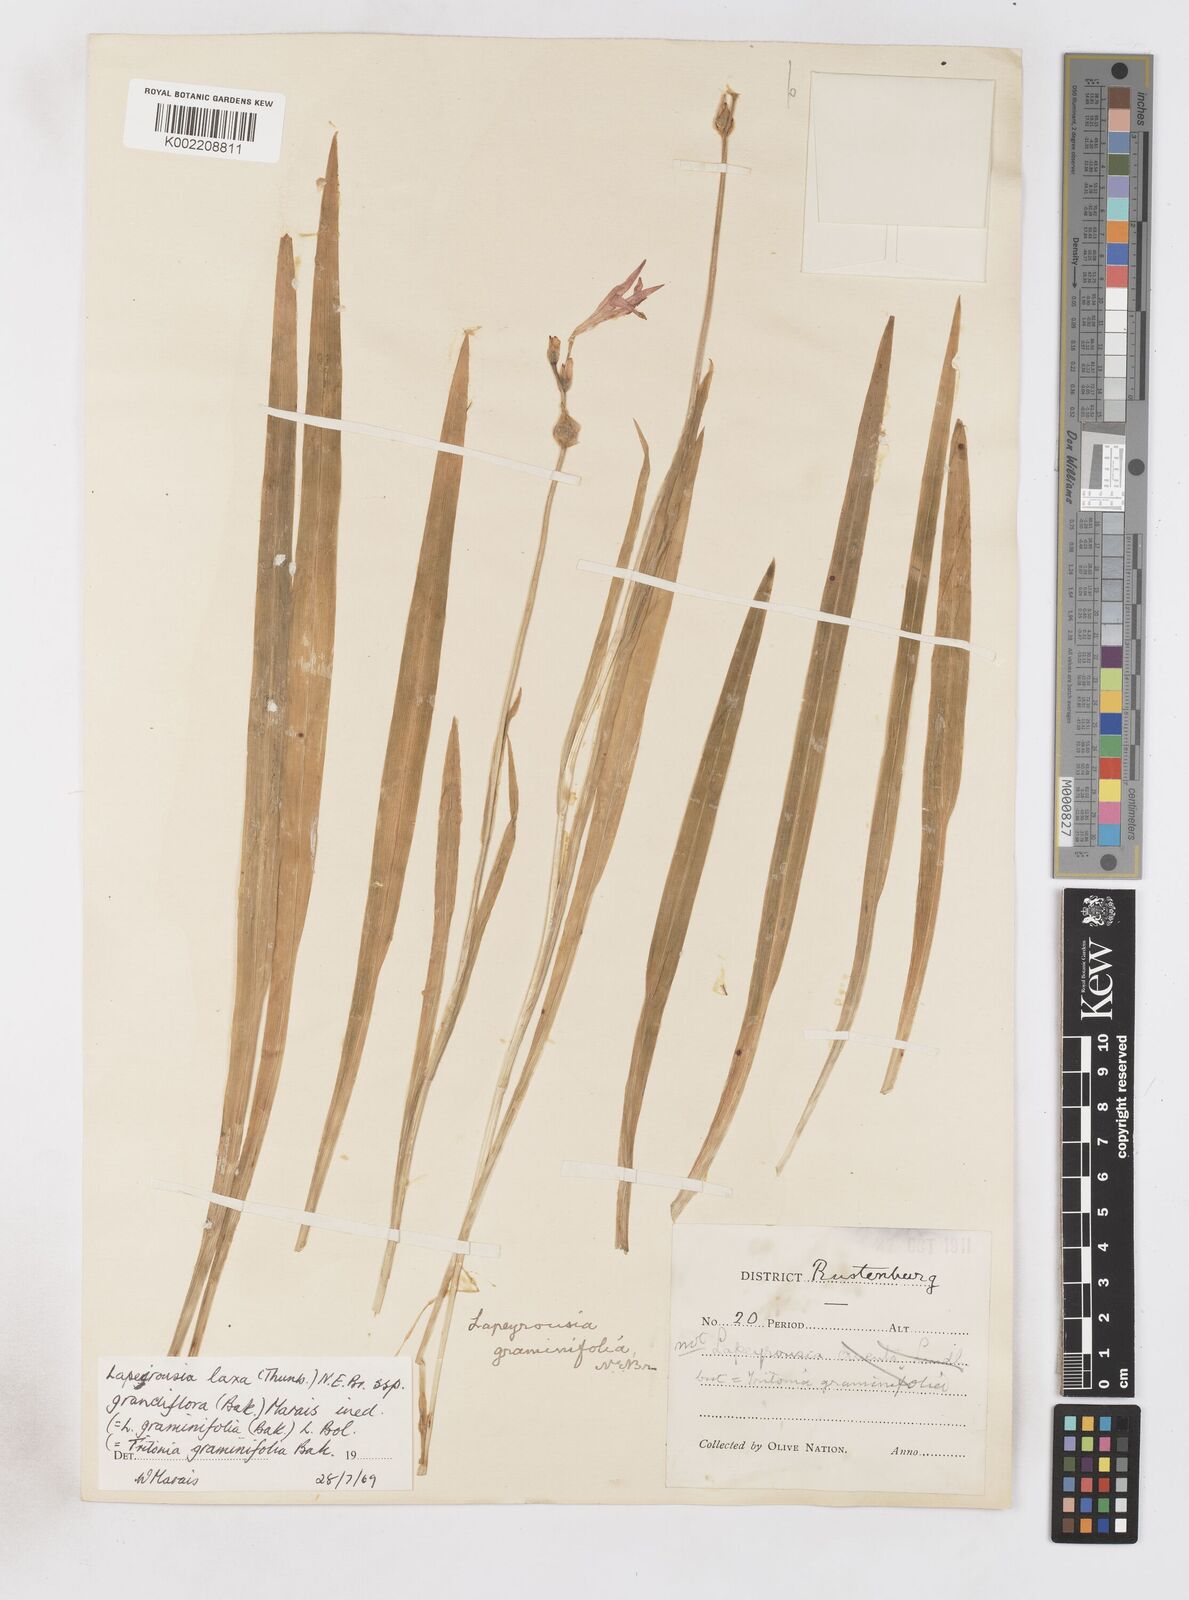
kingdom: Plantae
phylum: Tracheophyta
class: Liliopsida
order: Asparagales
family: Iridaceae
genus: Freesia
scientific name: Freesia grandiflora
